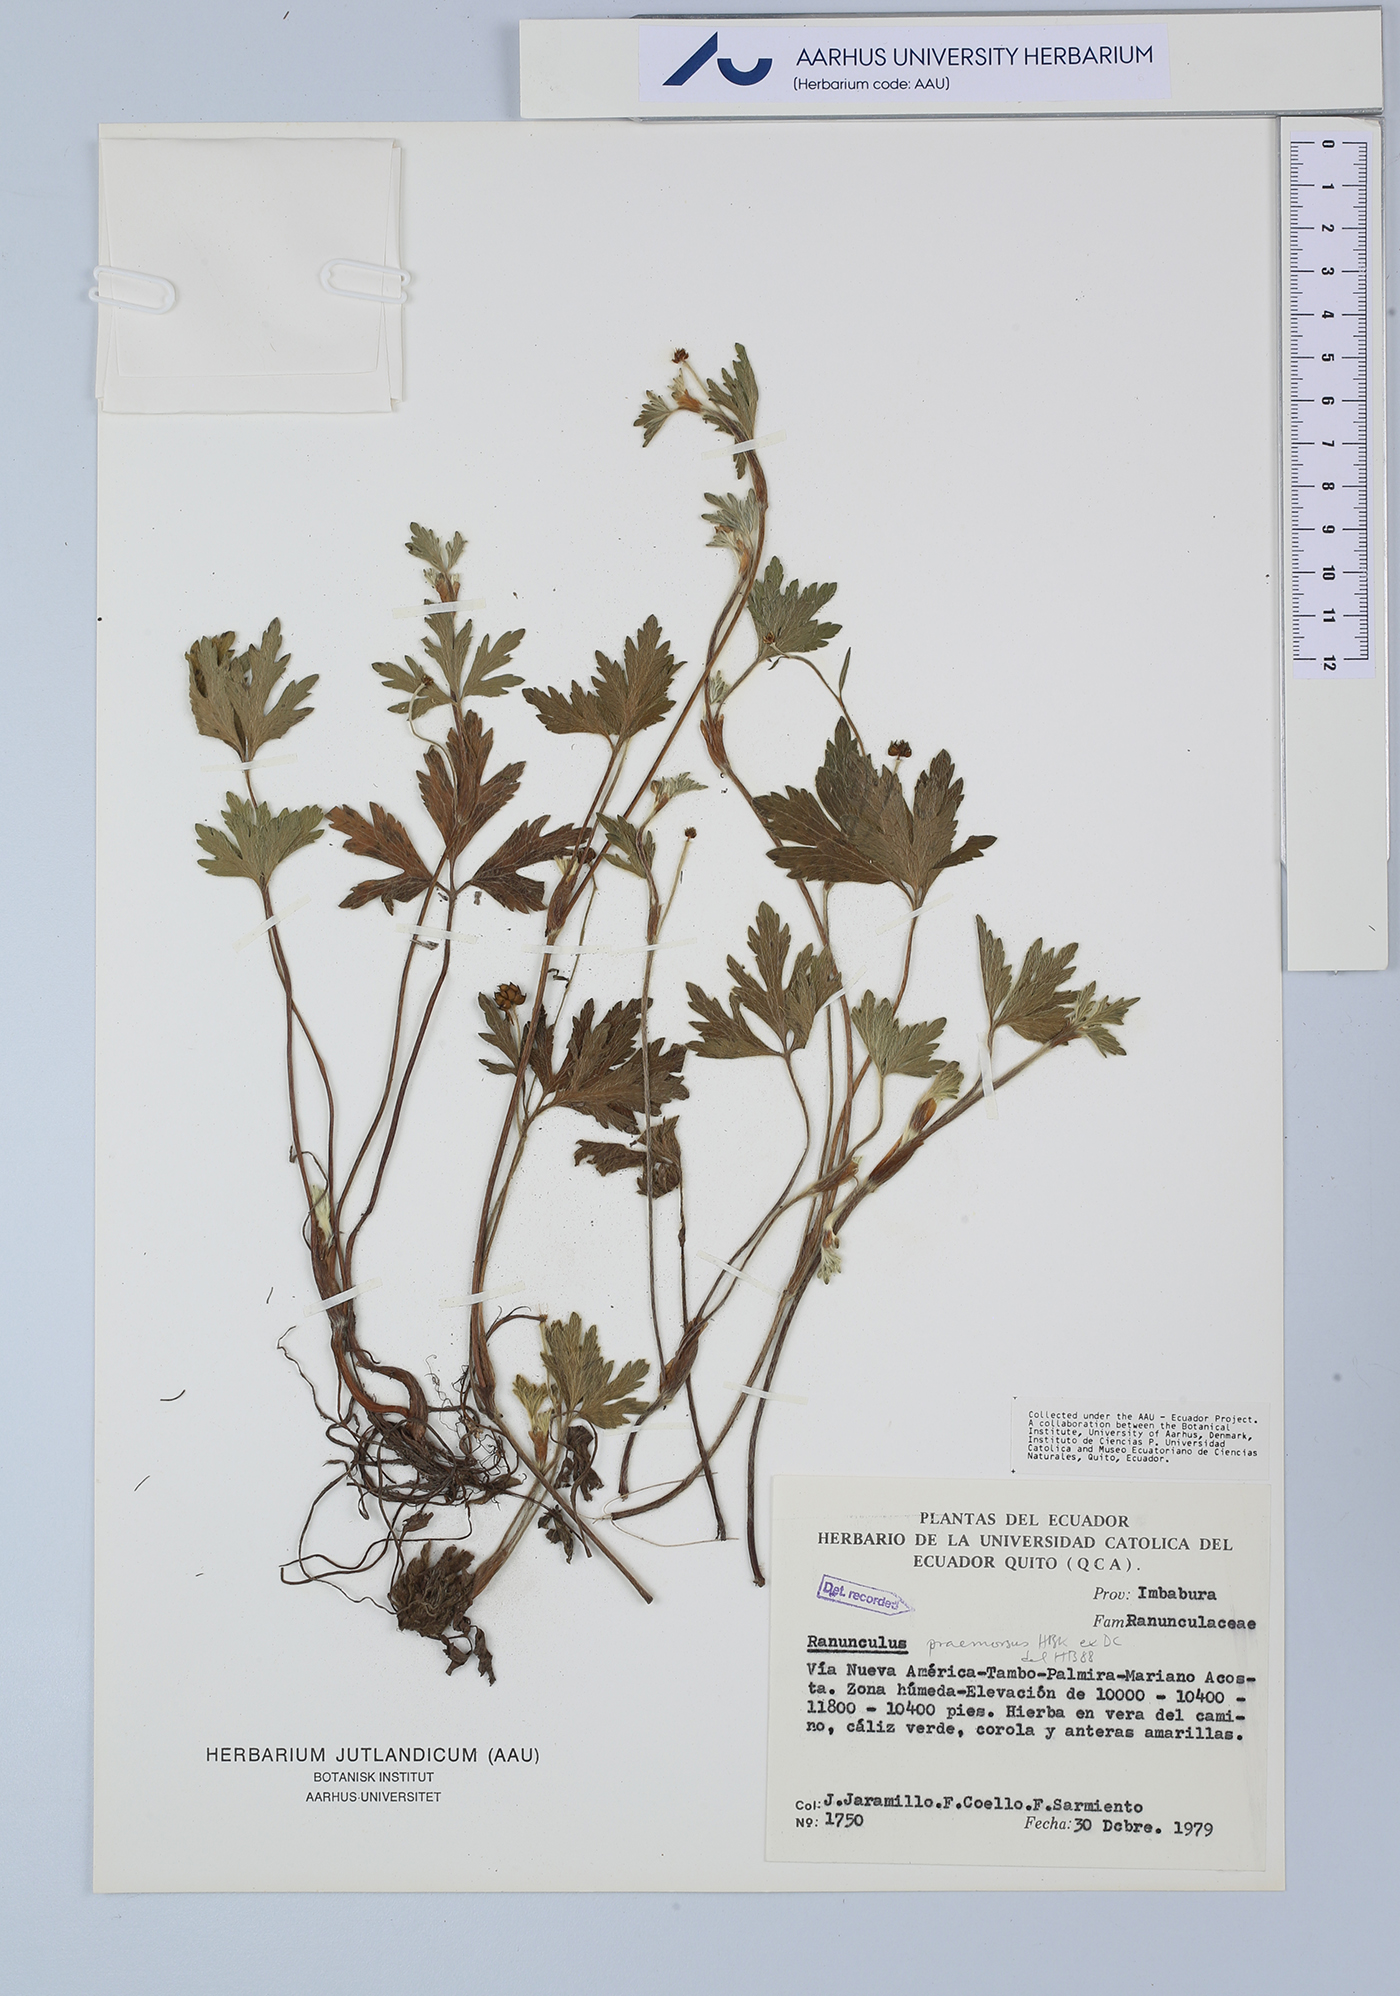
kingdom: Plantae
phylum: Tracheophyta
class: Magnoliopsida
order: Ranunculales
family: Ranunculaceae
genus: Ranunculus
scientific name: Ranunculus praemorsus
